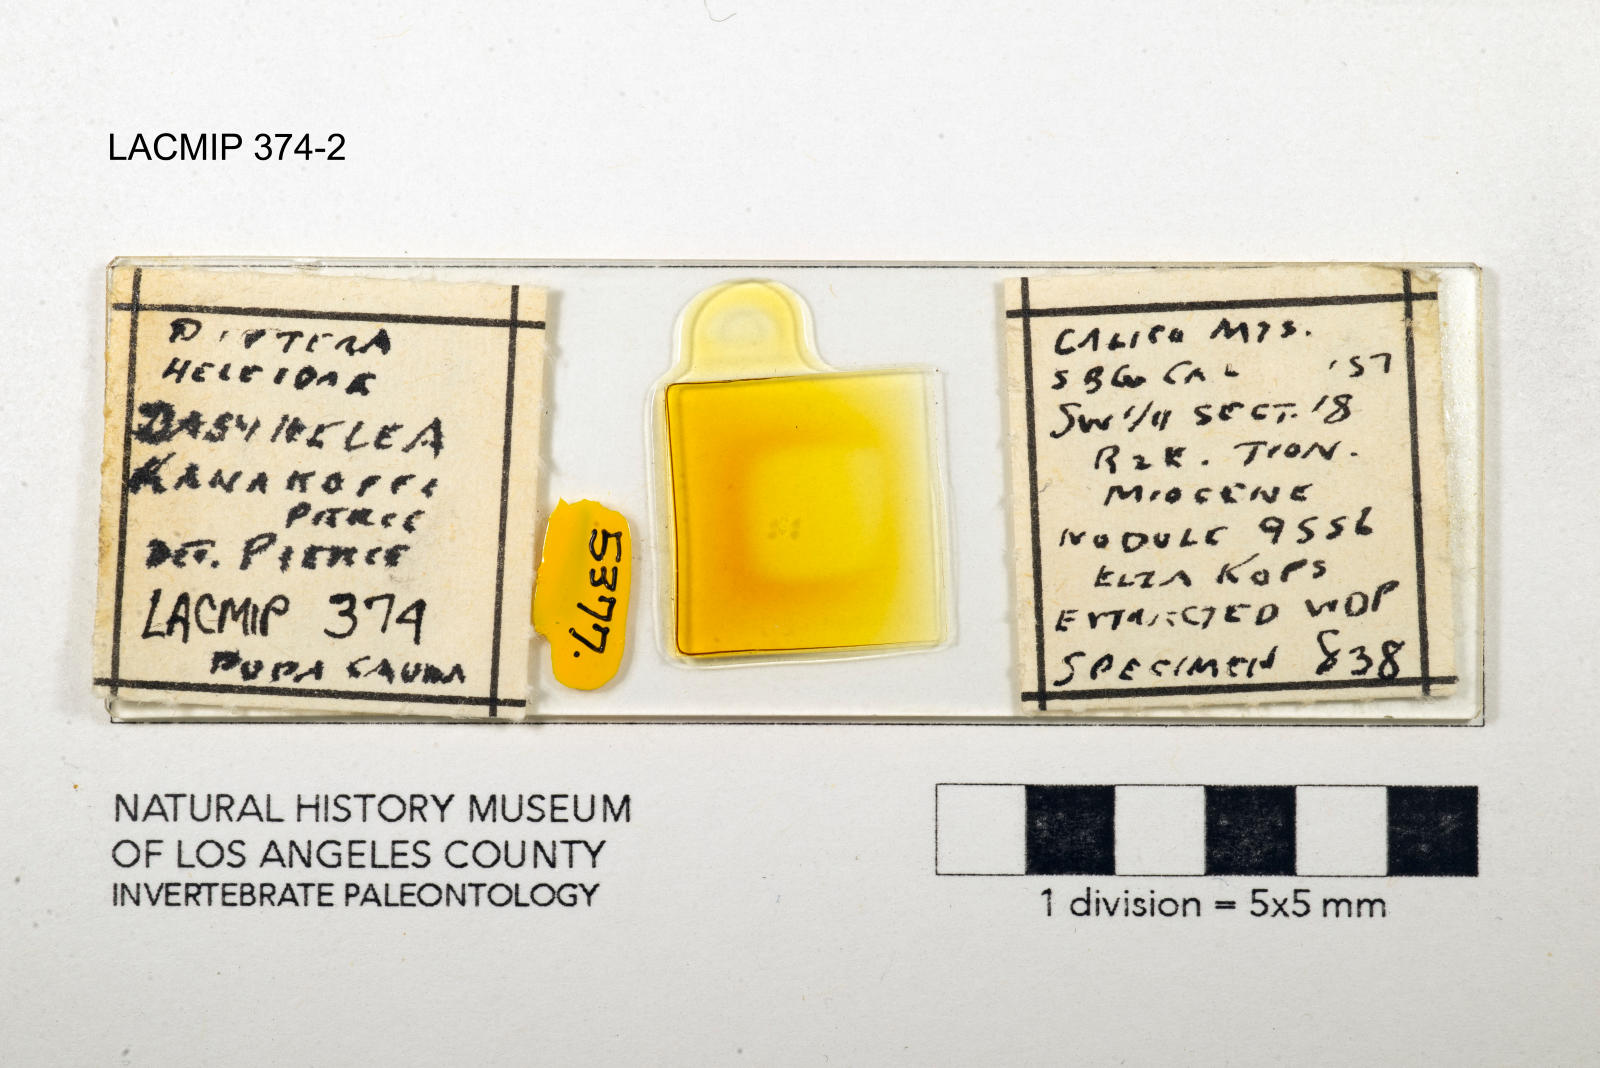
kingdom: Animalia
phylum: Arthropoda
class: Insecta
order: Diptera
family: Ceratopogonidae
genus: Dasyhelea
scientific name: Dasyhelea kanakoffi
